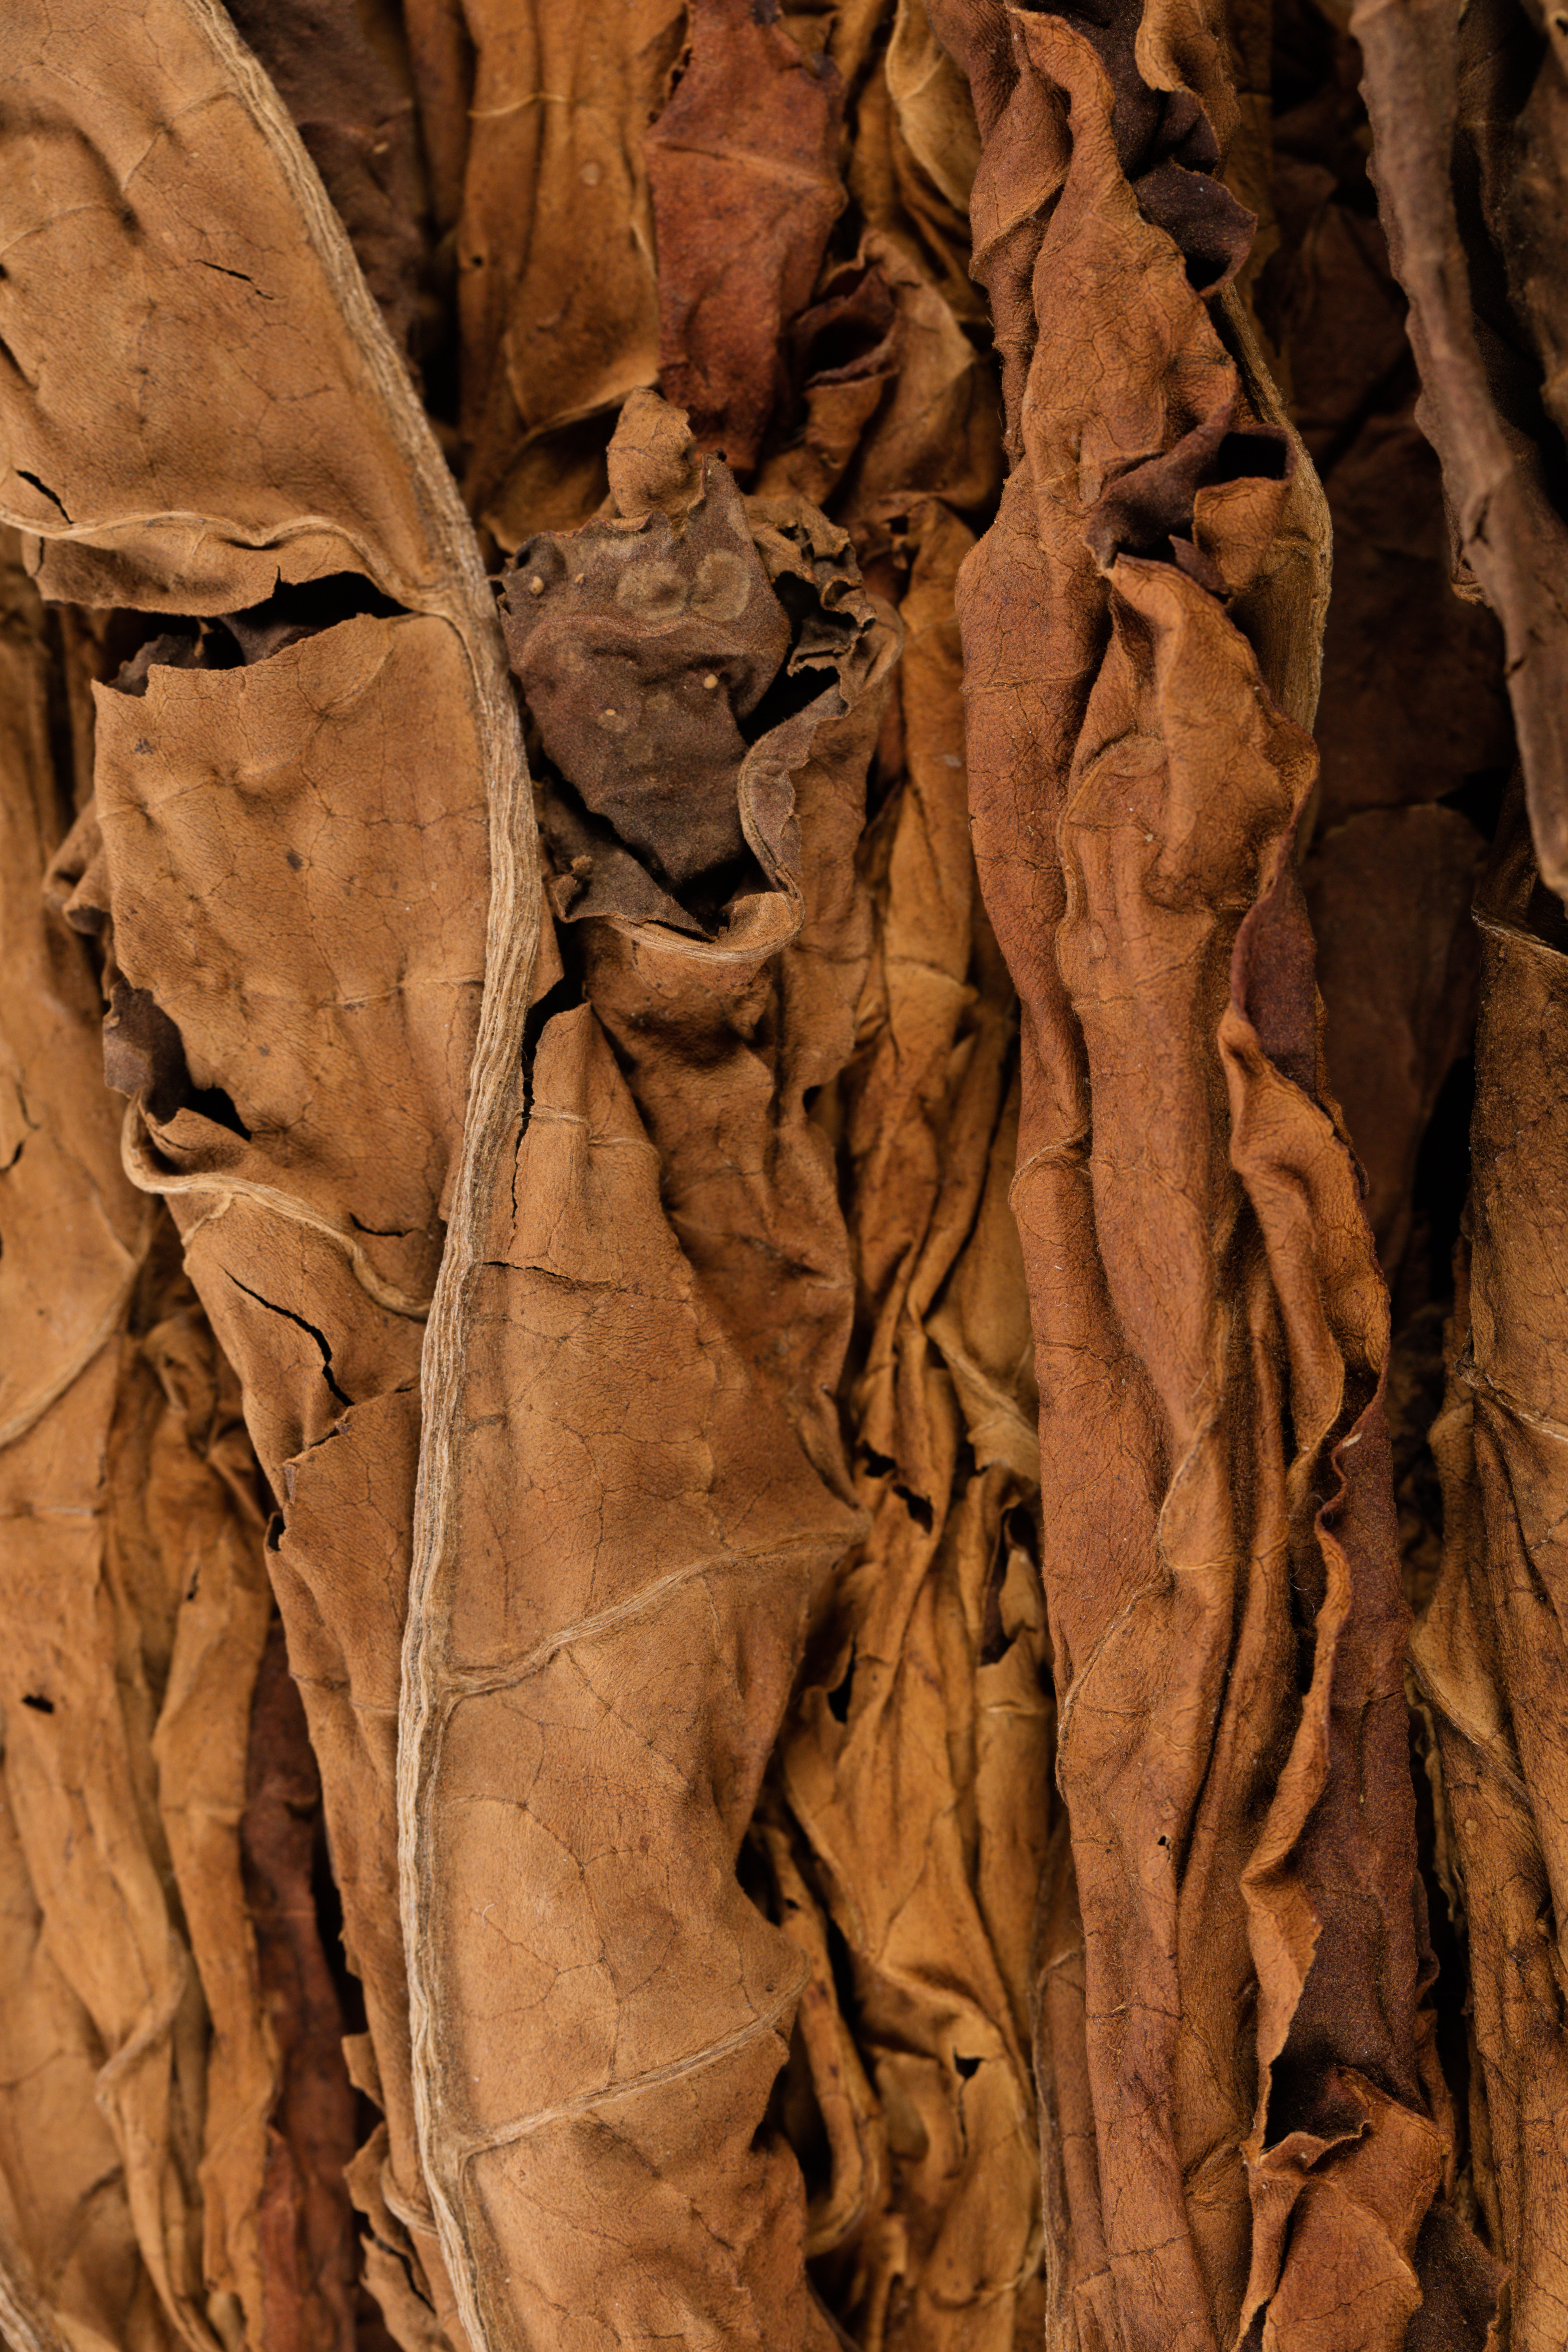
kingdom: Plantae
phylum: Tracheophyta
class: Magnoliopsida
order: Solanales
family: Solanaceae
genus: Nicotiana
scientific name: Nicotiana tabacum
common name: Tobacco
